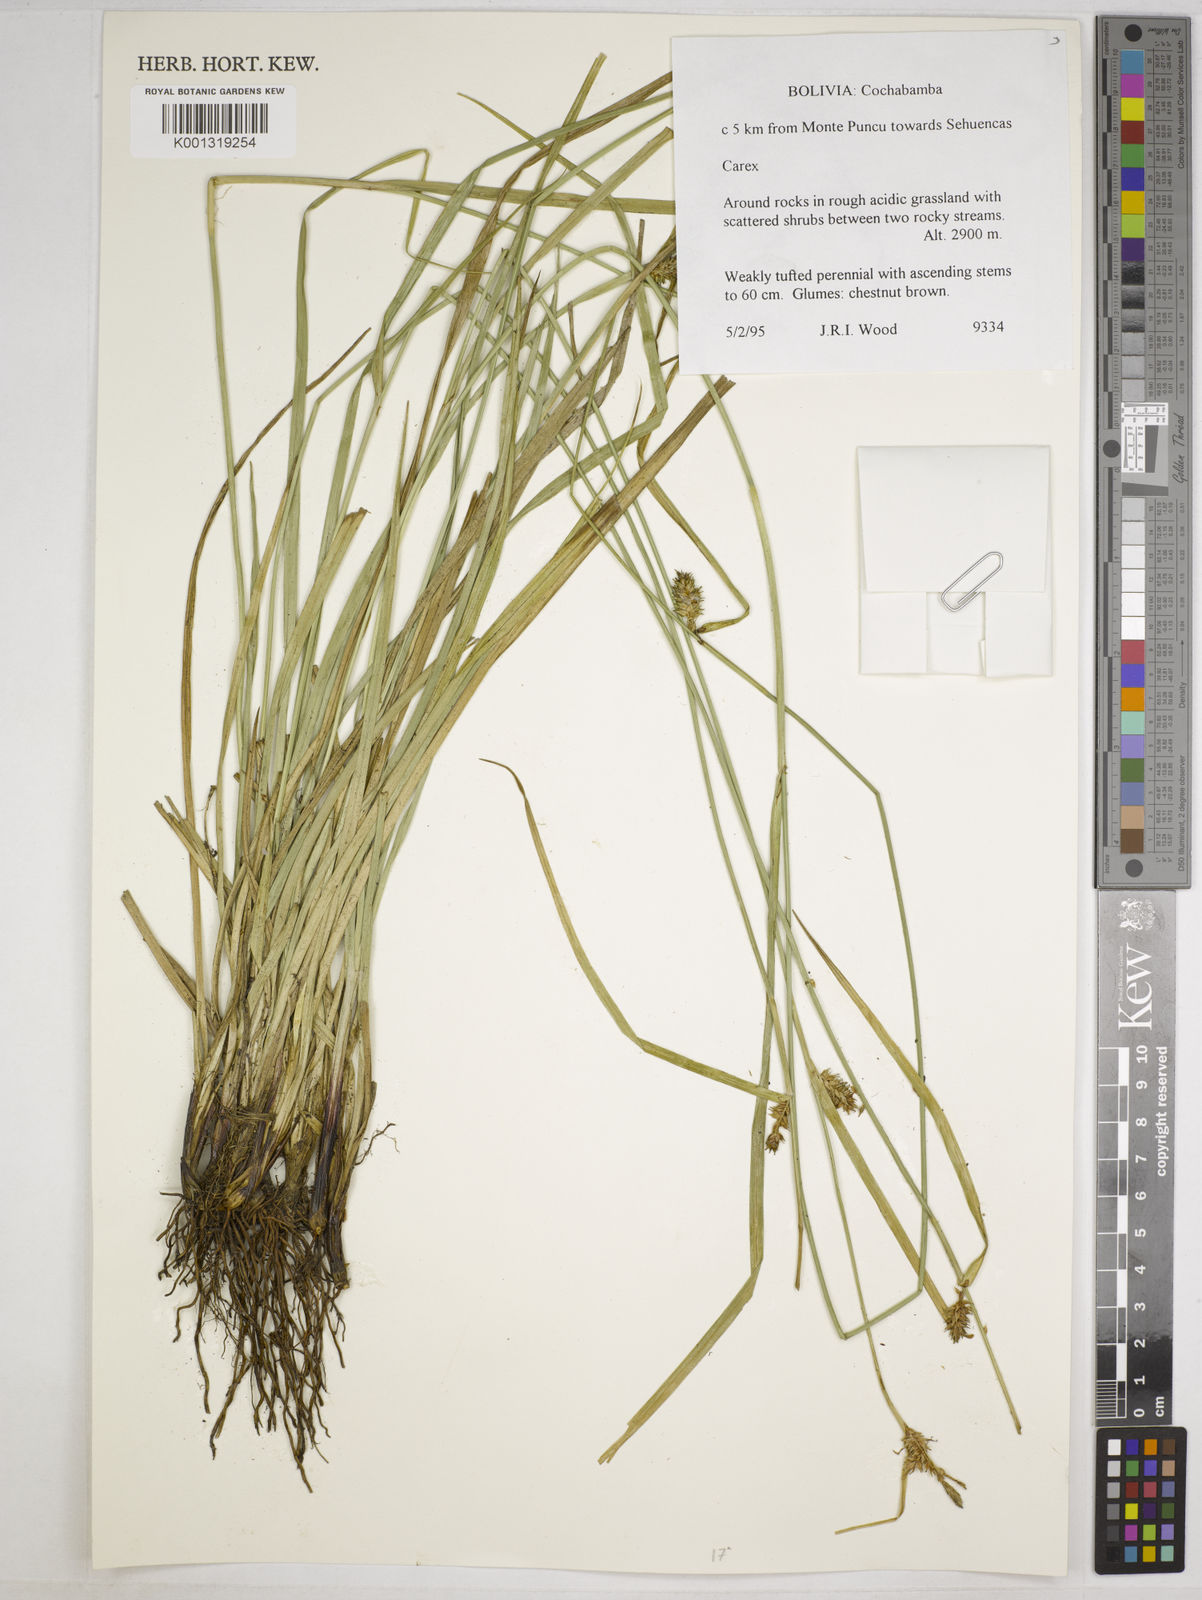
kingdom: Plantae
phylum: Tracheophyta
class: Liliopsida
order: Poales
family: Cyperaceae
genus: Carex
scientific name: Carex fuscula
